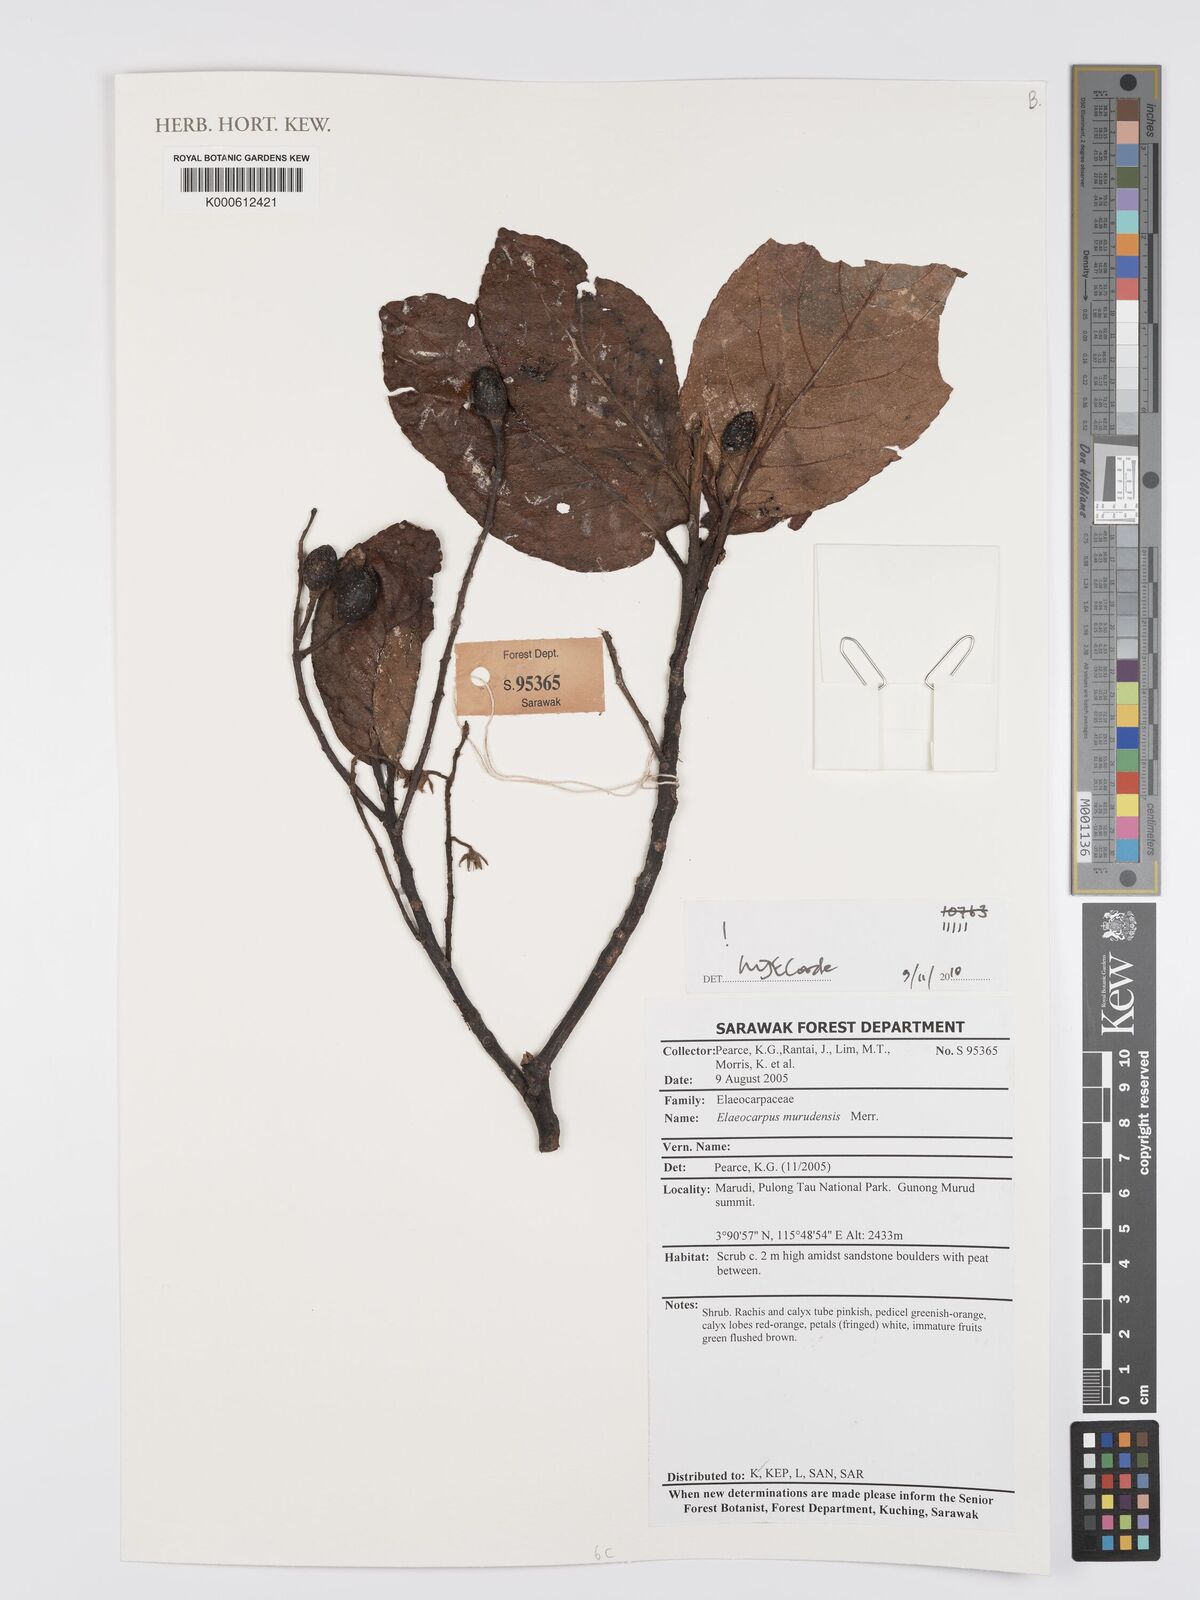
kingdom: Plantae
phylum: Tracheophyta
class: Magnoliopsida
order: Oxalidales
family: Elaeocarpaceae
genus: Elaeocarpus
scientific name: Elaeocarpus murudensis
